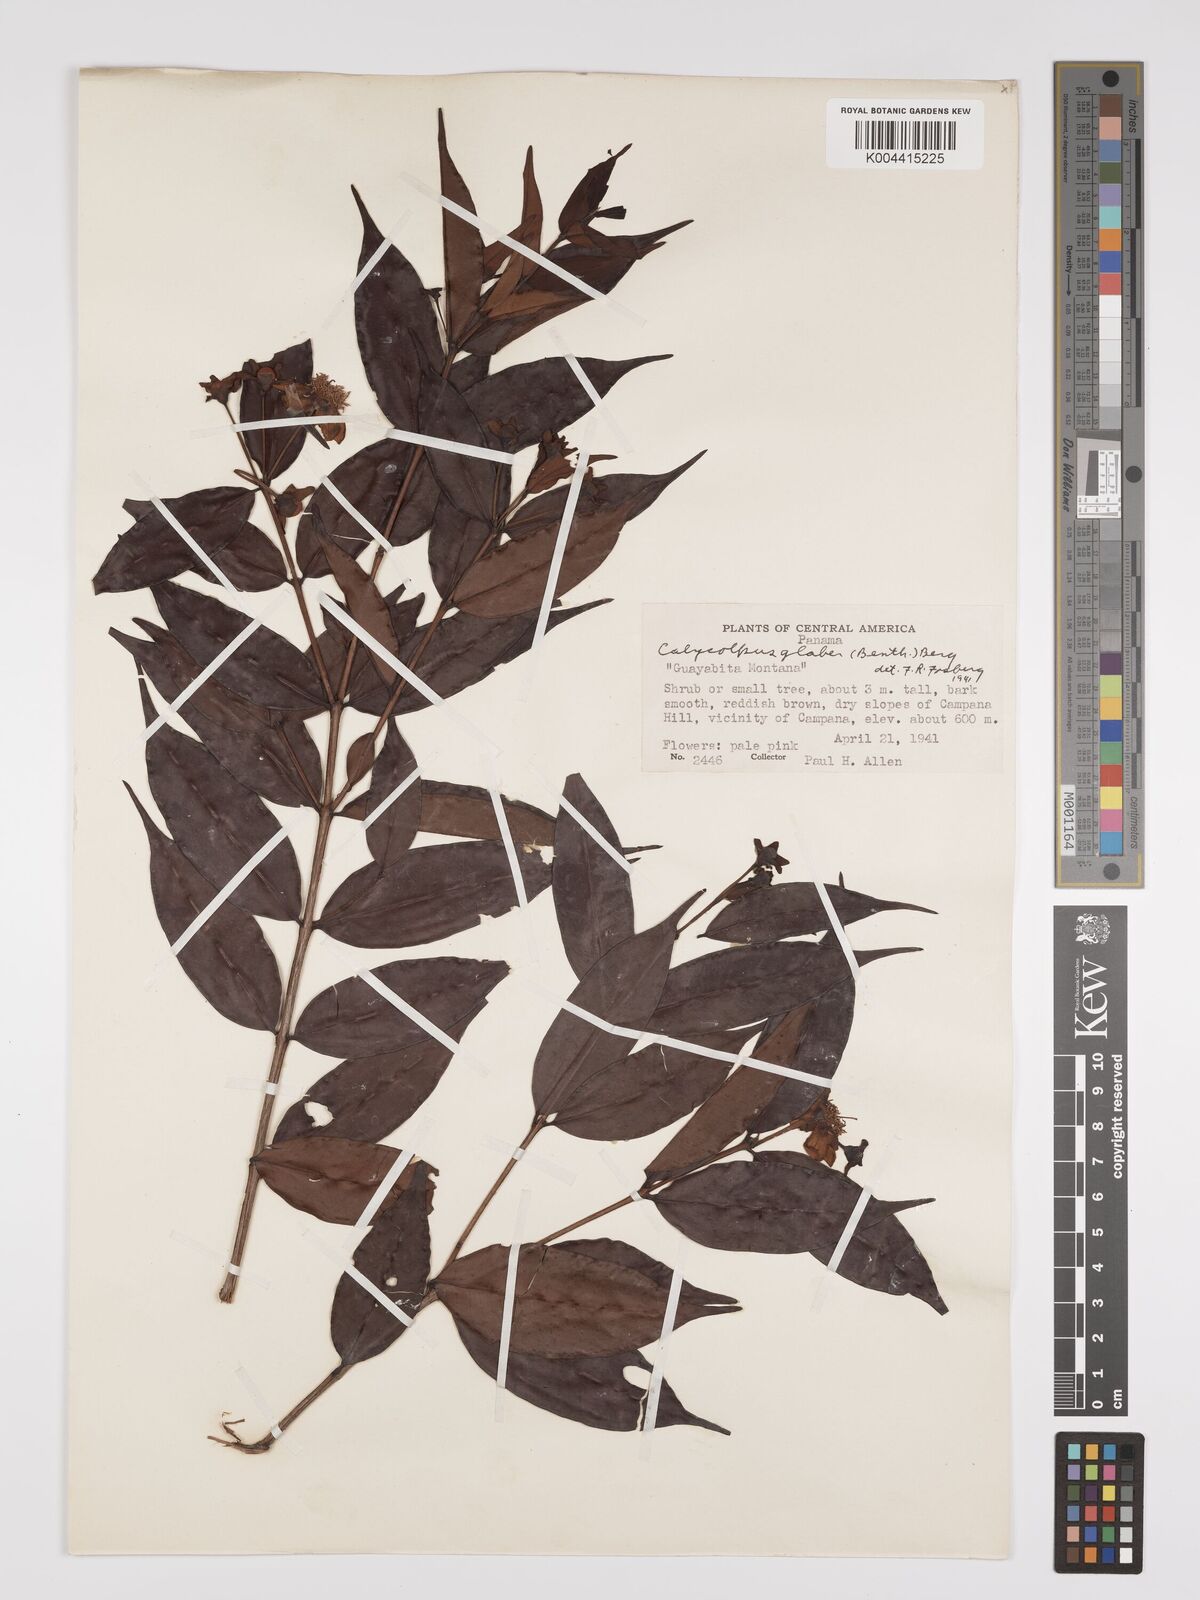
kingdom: Plantae
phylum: Tracheophyta
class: Magnoliopsida
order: Myrtales
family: Myrtaceae
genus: Calycolpus
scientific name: Calycolpus goetheanus
